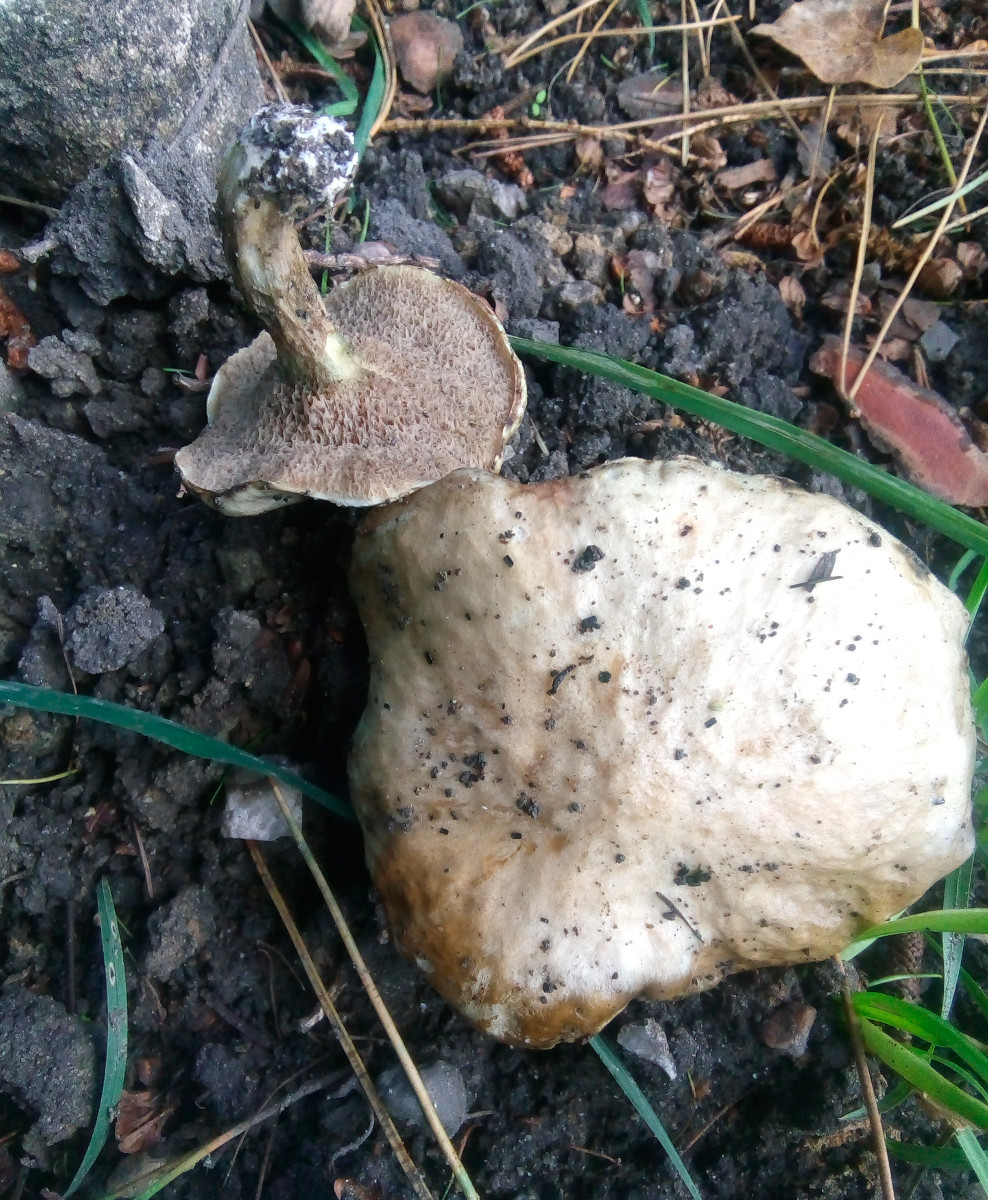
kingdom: Fungi
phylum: Basidiomycota
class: Agaricomycetes
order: Boletales
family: Suillaceae
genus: Suillus
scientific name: Suillus viscidus
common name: olivengrå slimrørhat
